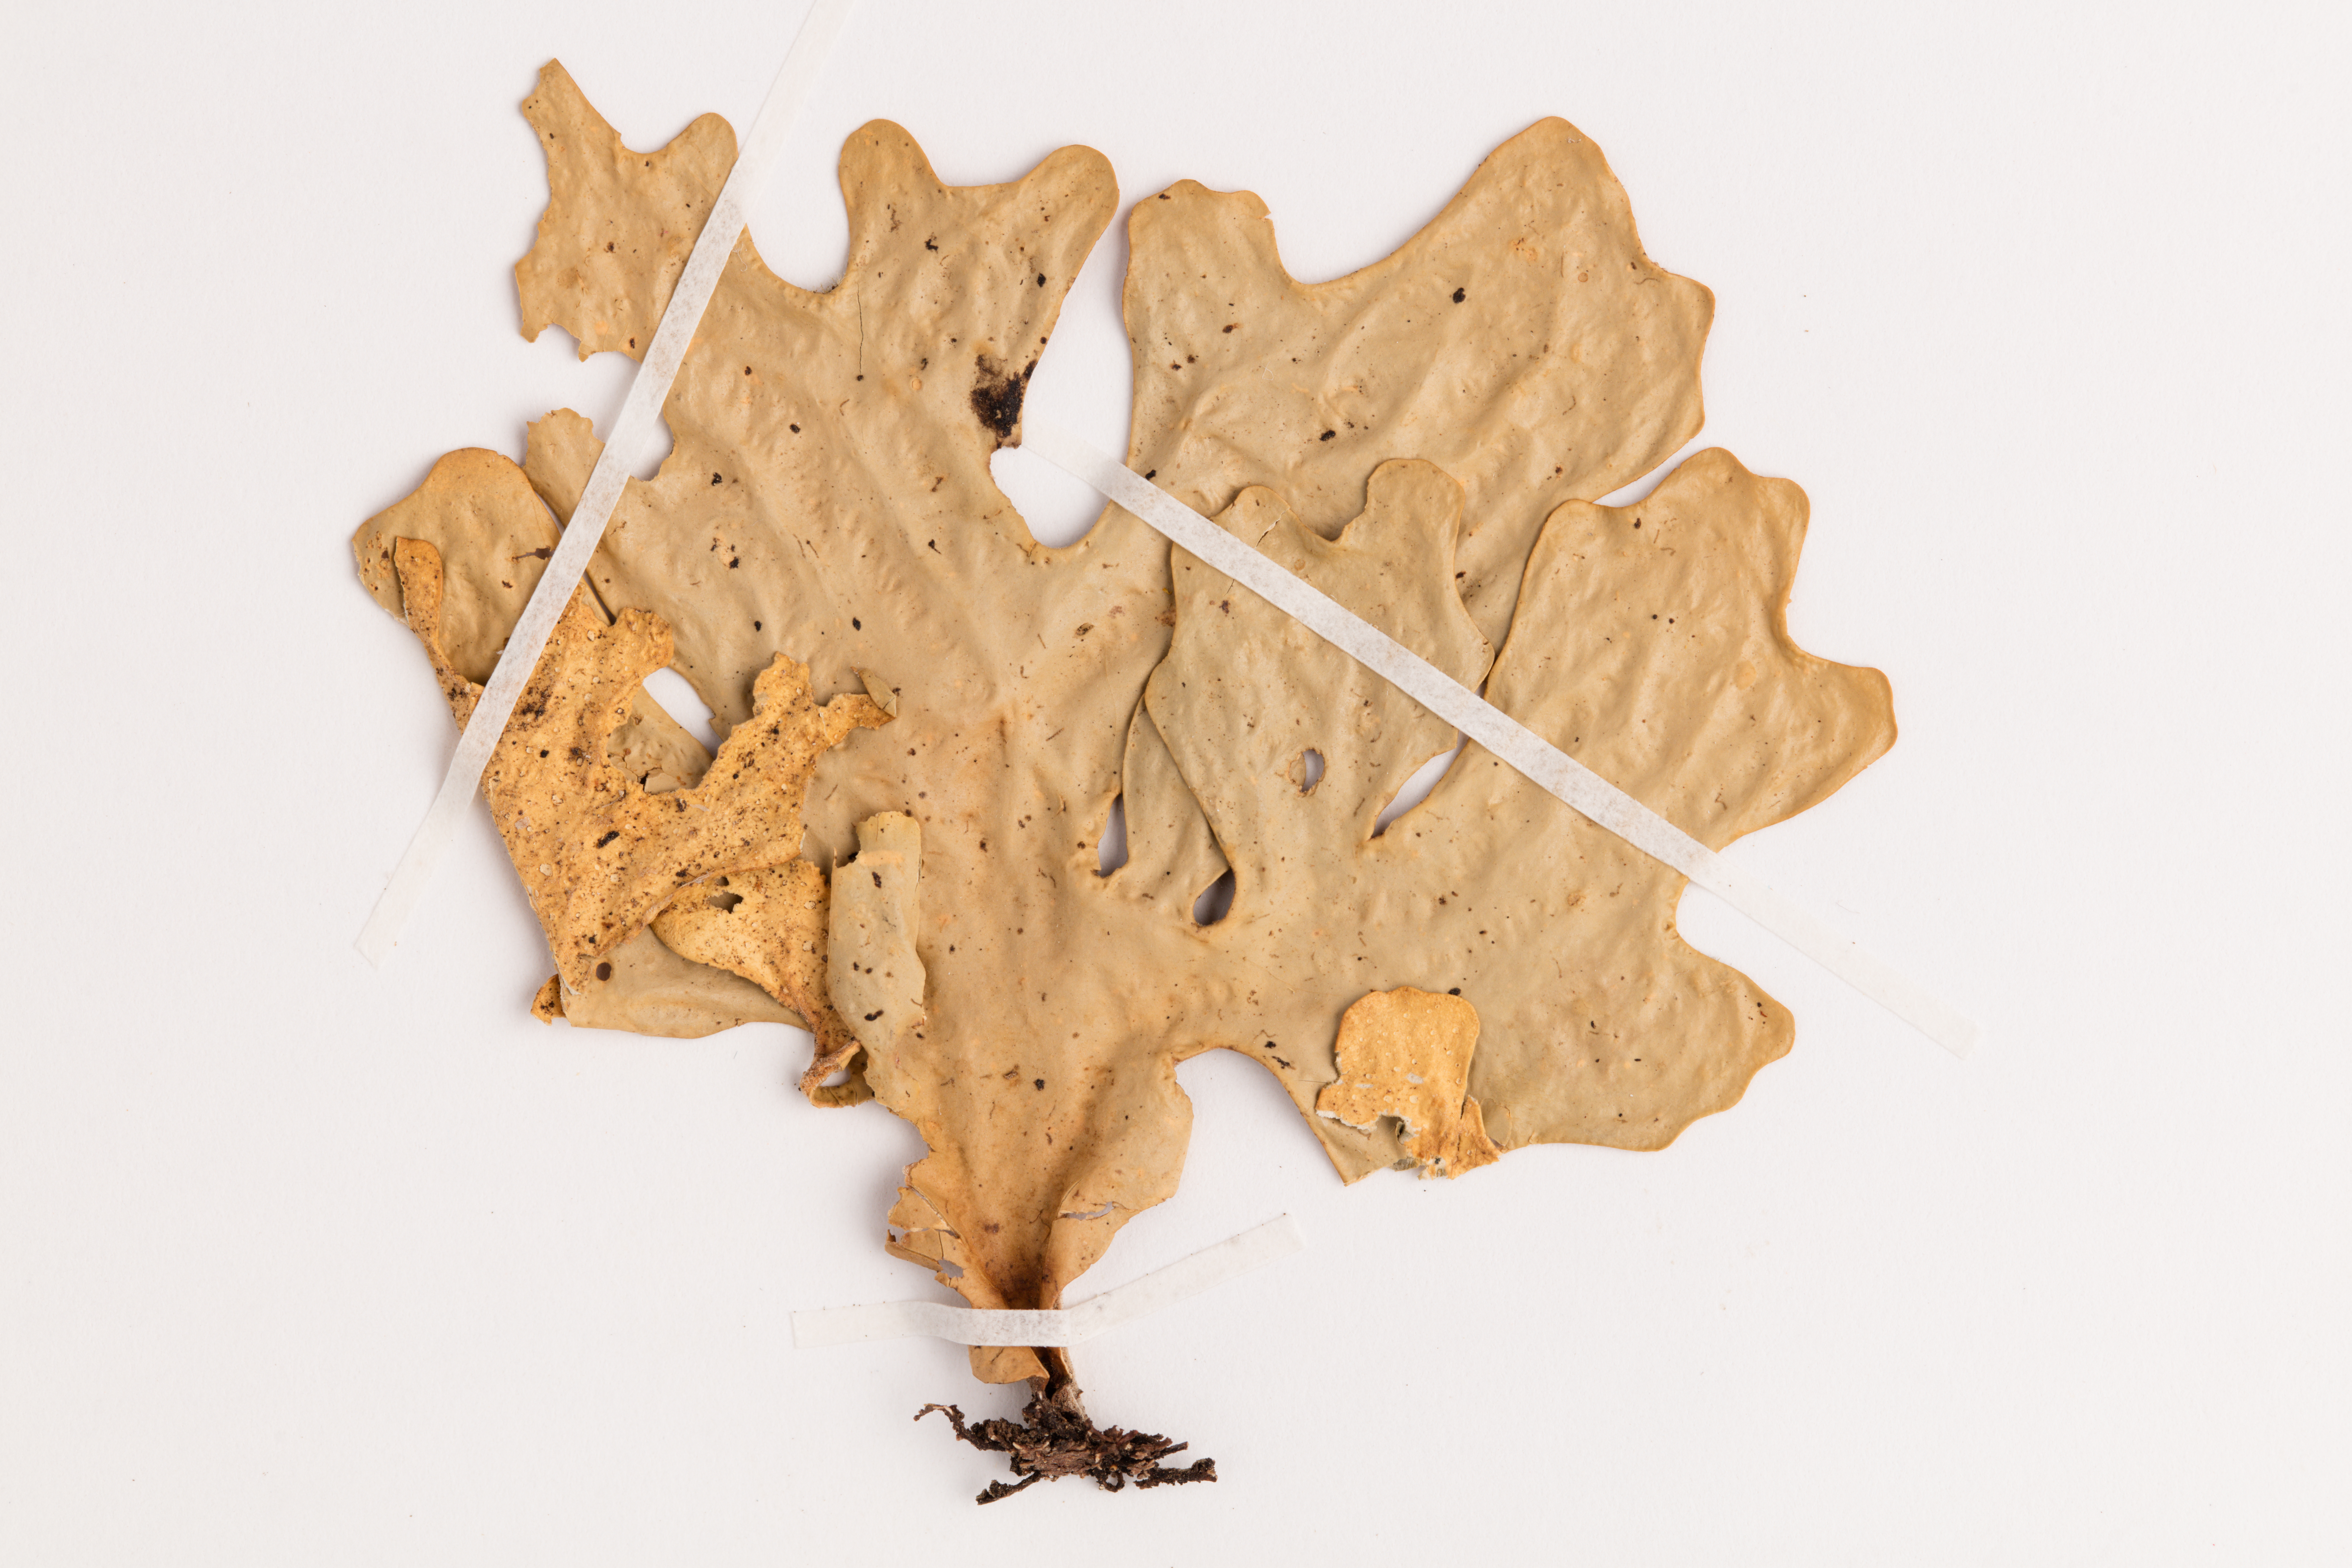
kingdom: Fungi
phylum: Ascomycota
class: Lecanoromycetes
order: Peltigerales
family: Lobariaceae
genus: Sticta
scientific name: Sticta latifrons
